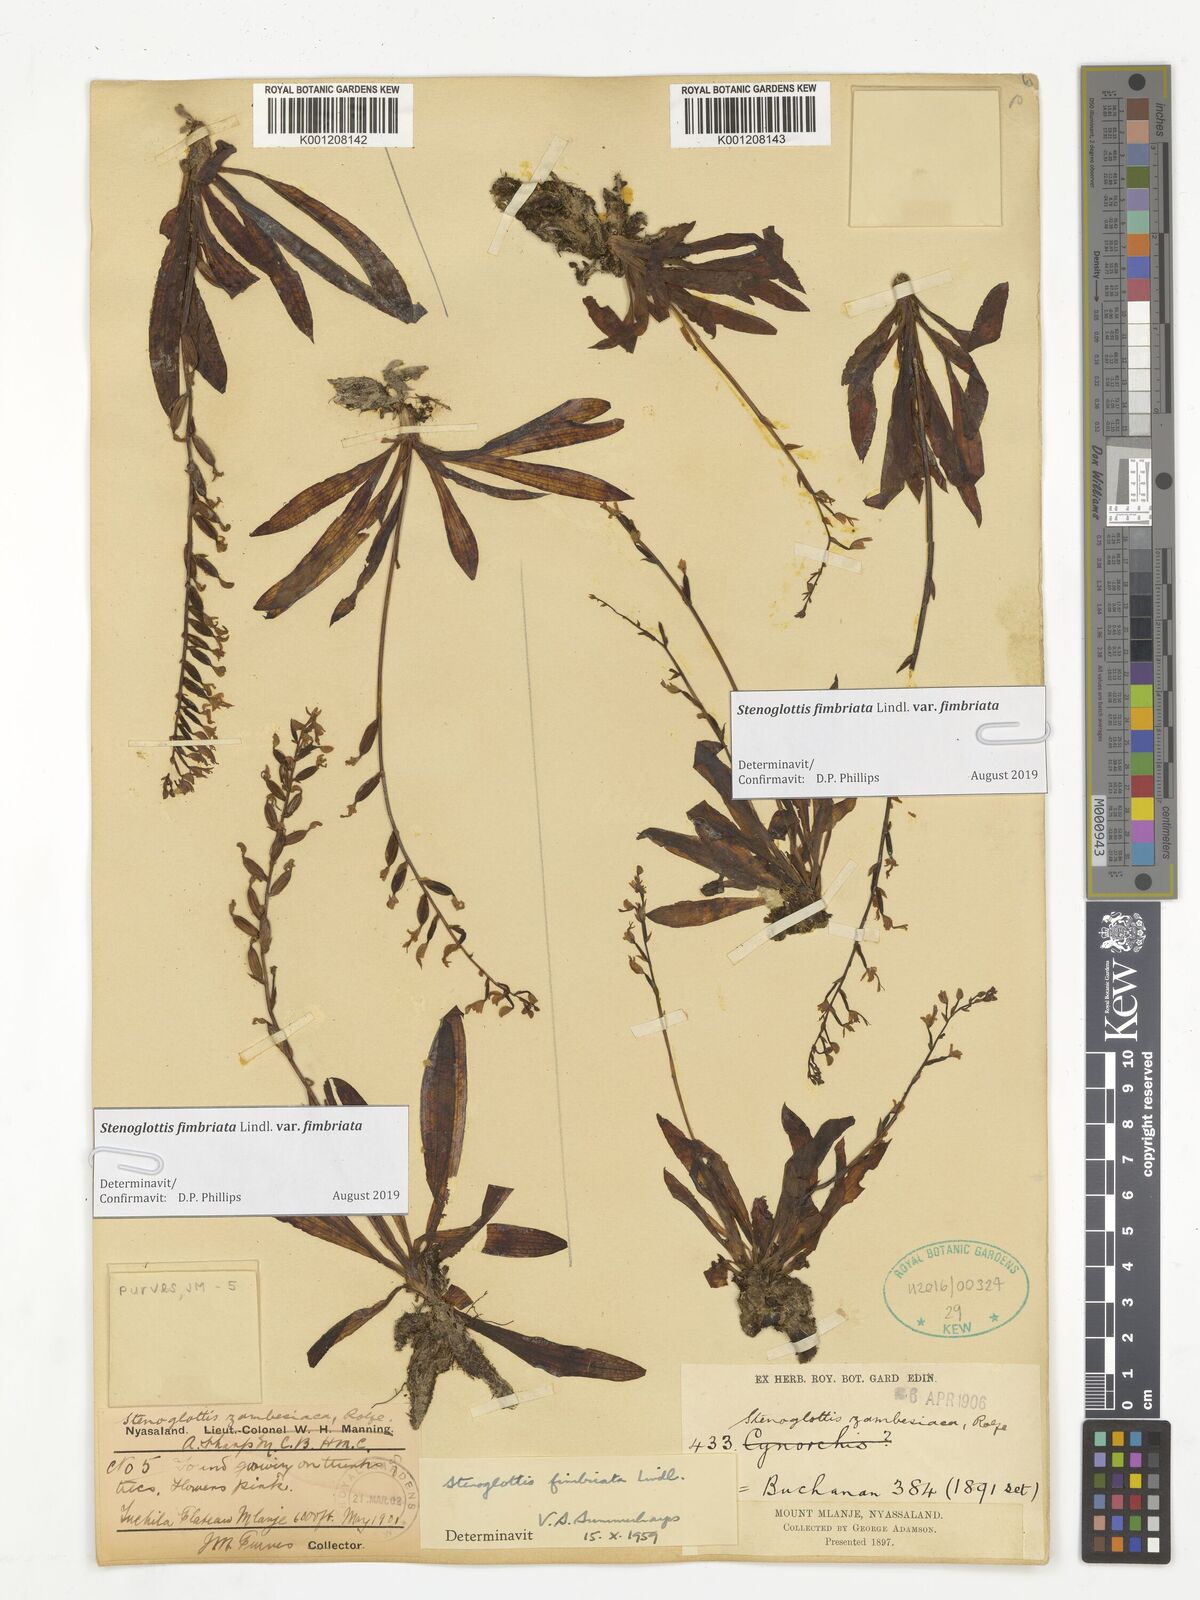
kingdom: Plantae
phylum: Tracheophyta
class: Liliopsida
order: Asparagales
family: Orchidaceae
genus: Stenoglottis
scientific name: Stenoglottis fimbriata
